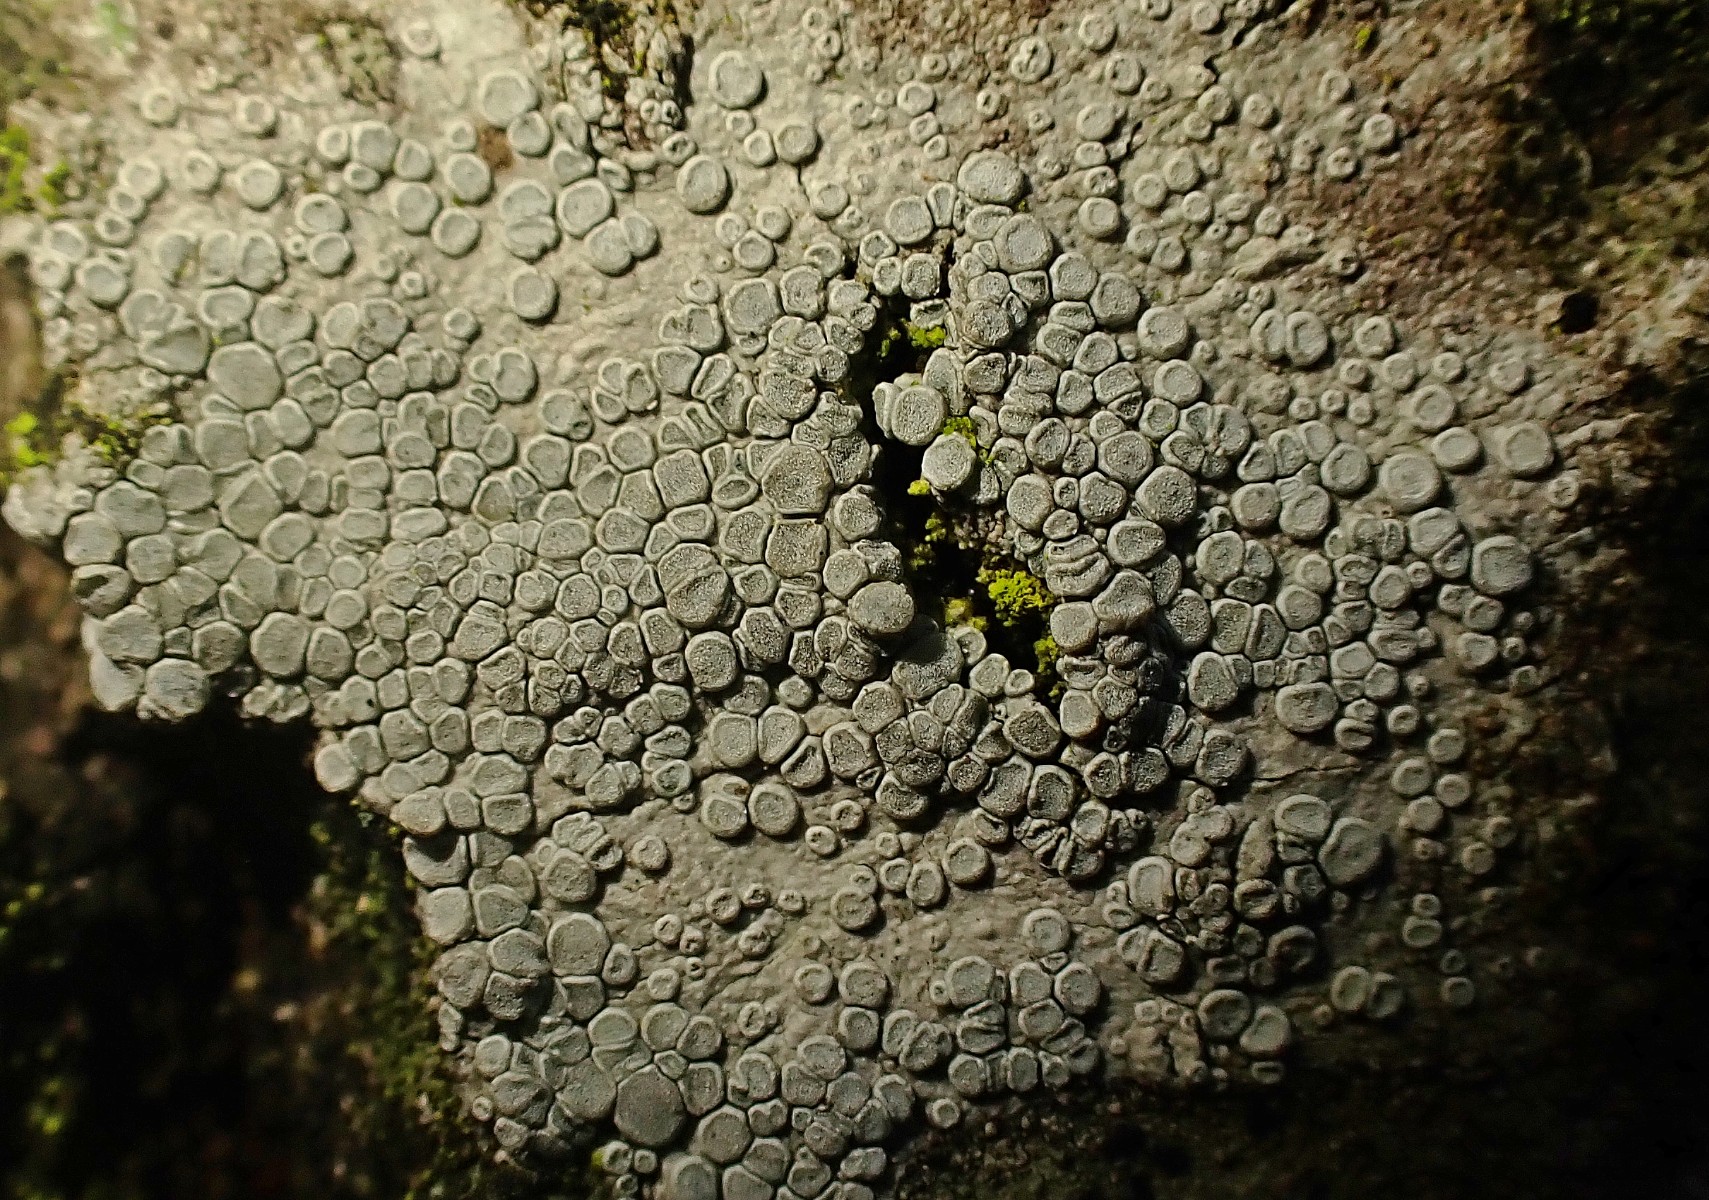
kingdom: Fungi
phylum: Ascomycota
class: Lecanoromycetes
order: Lecanorales
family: Lecanoraceae
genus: Glaucomaria
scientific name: Glaucomaria carpinea
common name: hviddugget kantskivelav
